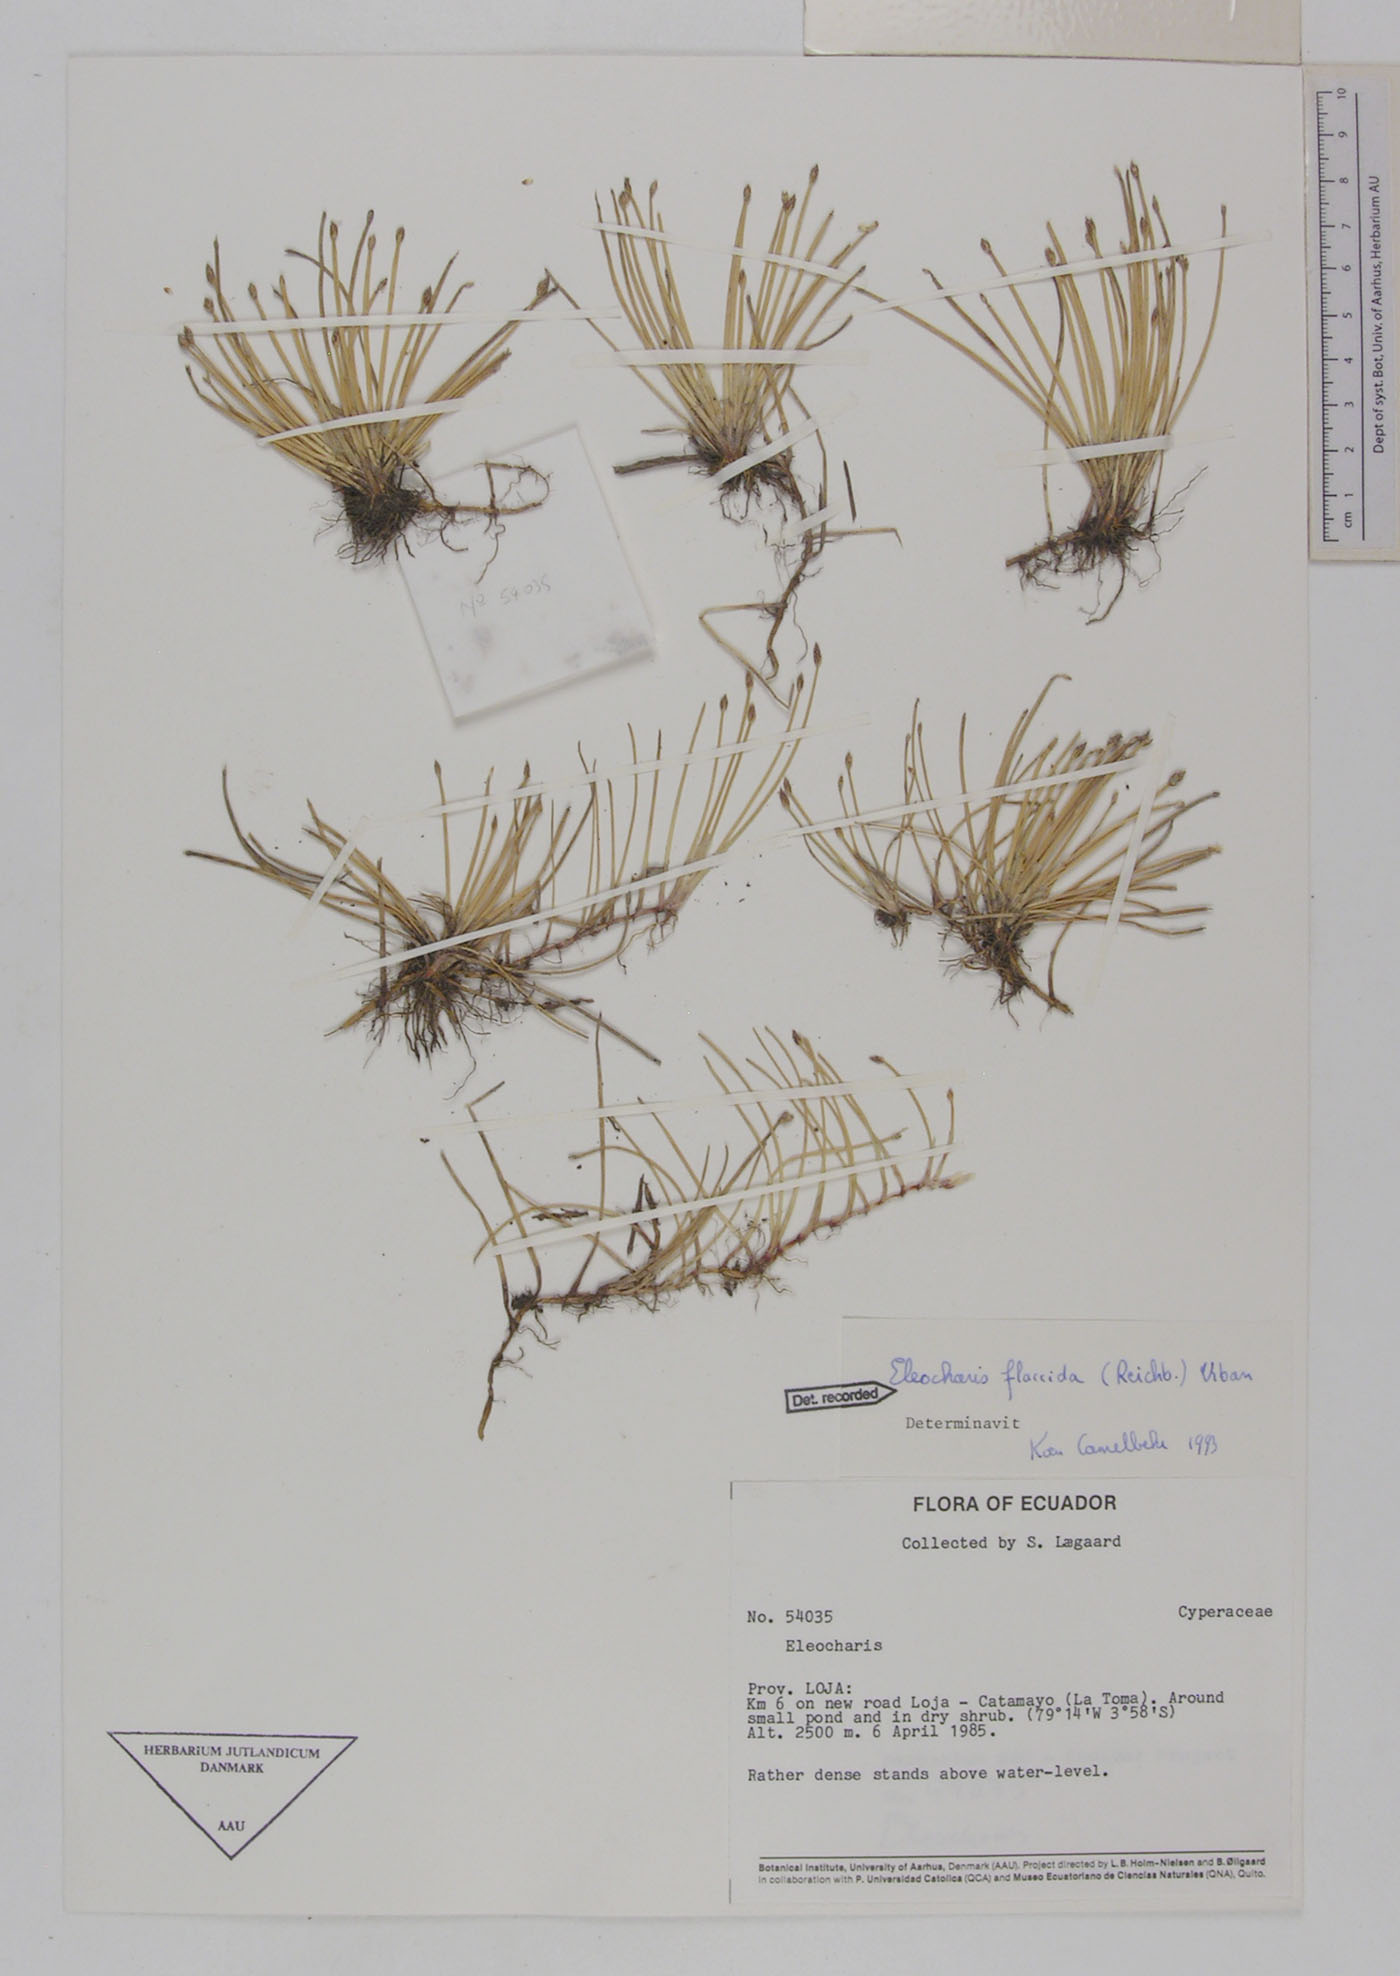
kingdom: Plantae
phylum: Tracheophyta
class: Liliopsida
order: Poales
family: Cyperaceae
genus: Eleocharis
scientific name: Eleocharis flavescens
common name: Yellow spikerush
